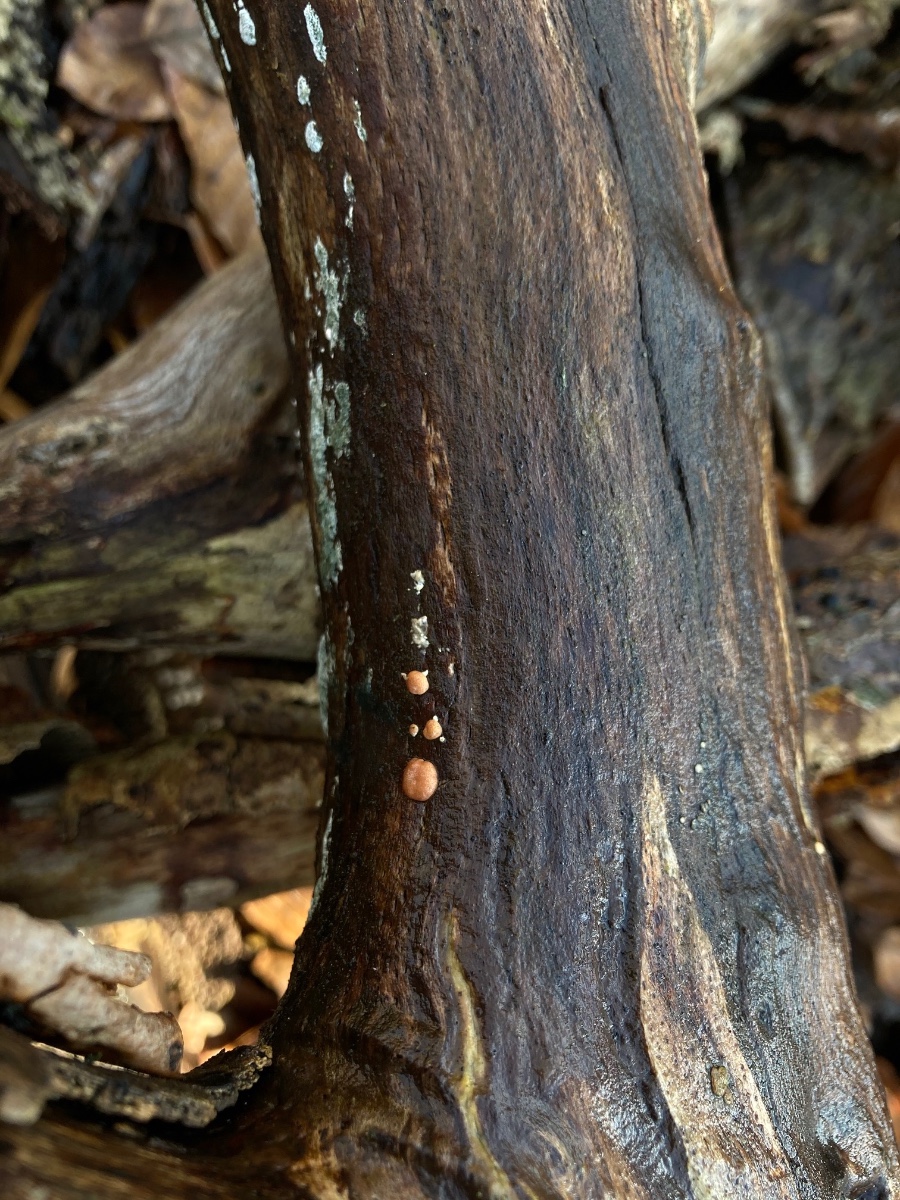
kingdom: Fungi
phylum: Ascomycota
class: Sordariomycetes
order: Hypocreales
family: Hypocreaceae
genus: Trichoderma
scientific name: Trichoderma europaeum
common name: rosabrun kødkerne
